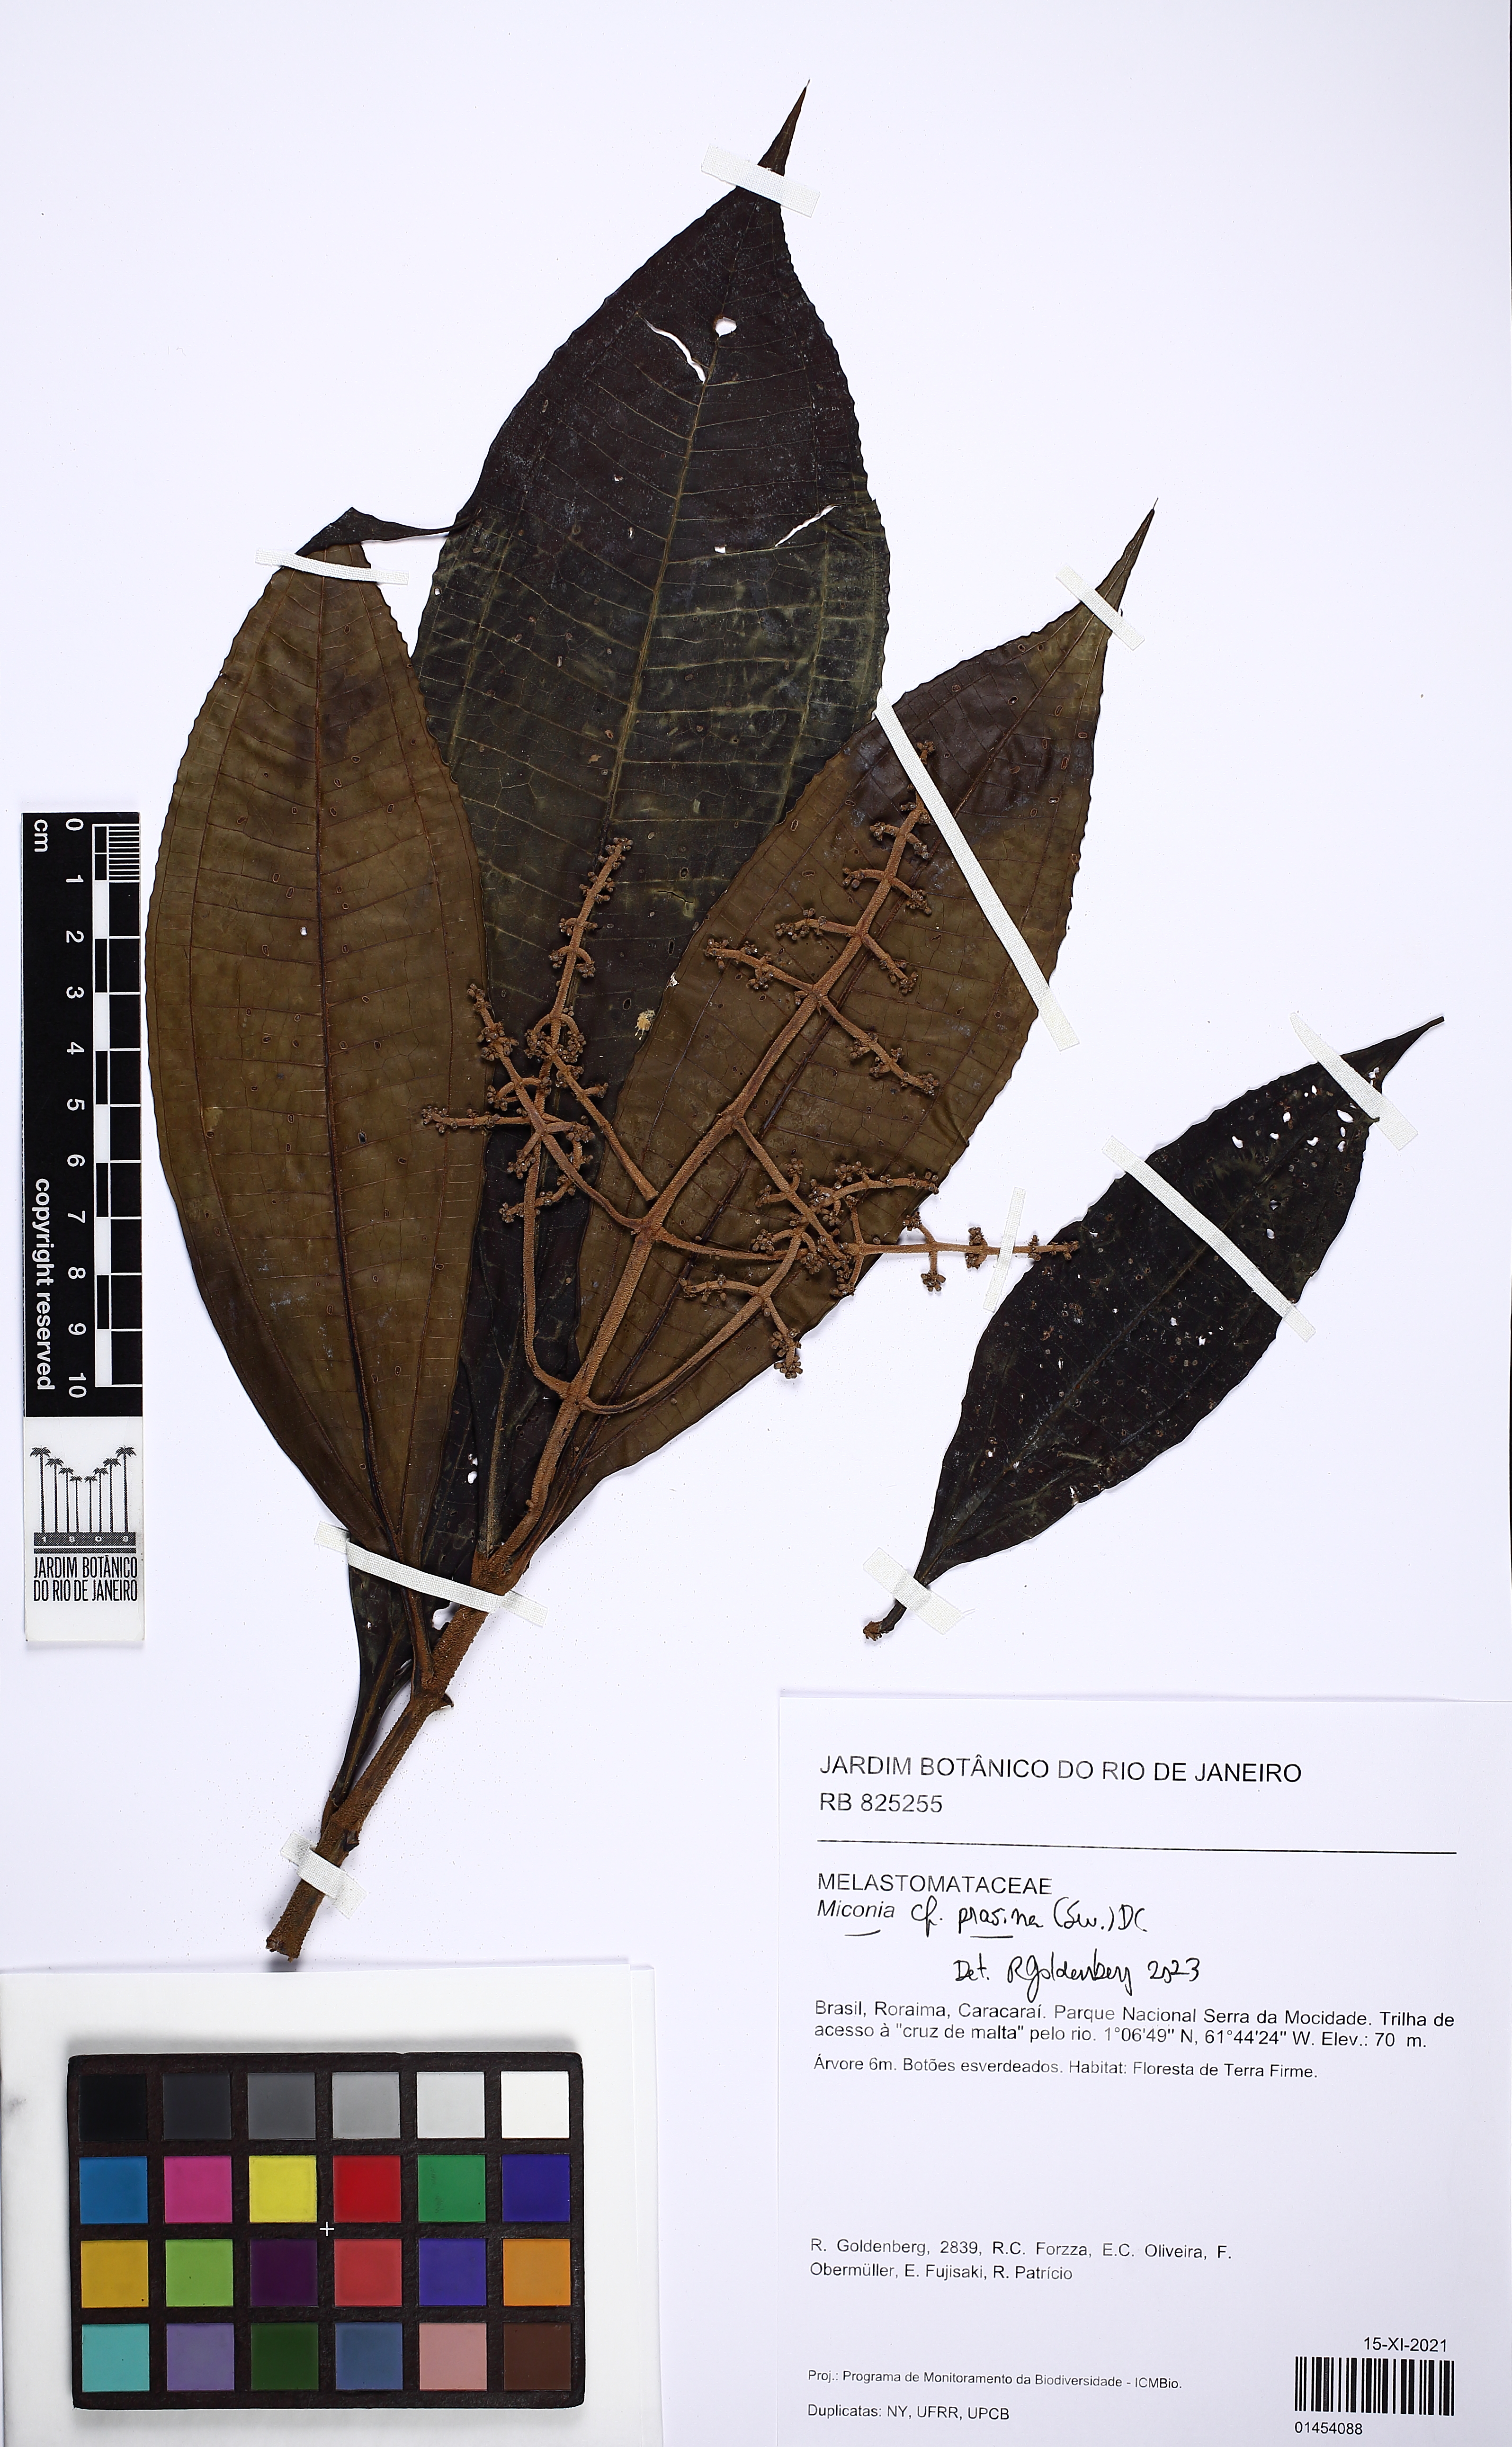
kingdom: Plantae
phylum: Tracheophyta
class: Magnoliopsida
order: Myrtales
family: Melastomataceae
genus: Miconia
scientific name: Miconia prasina
